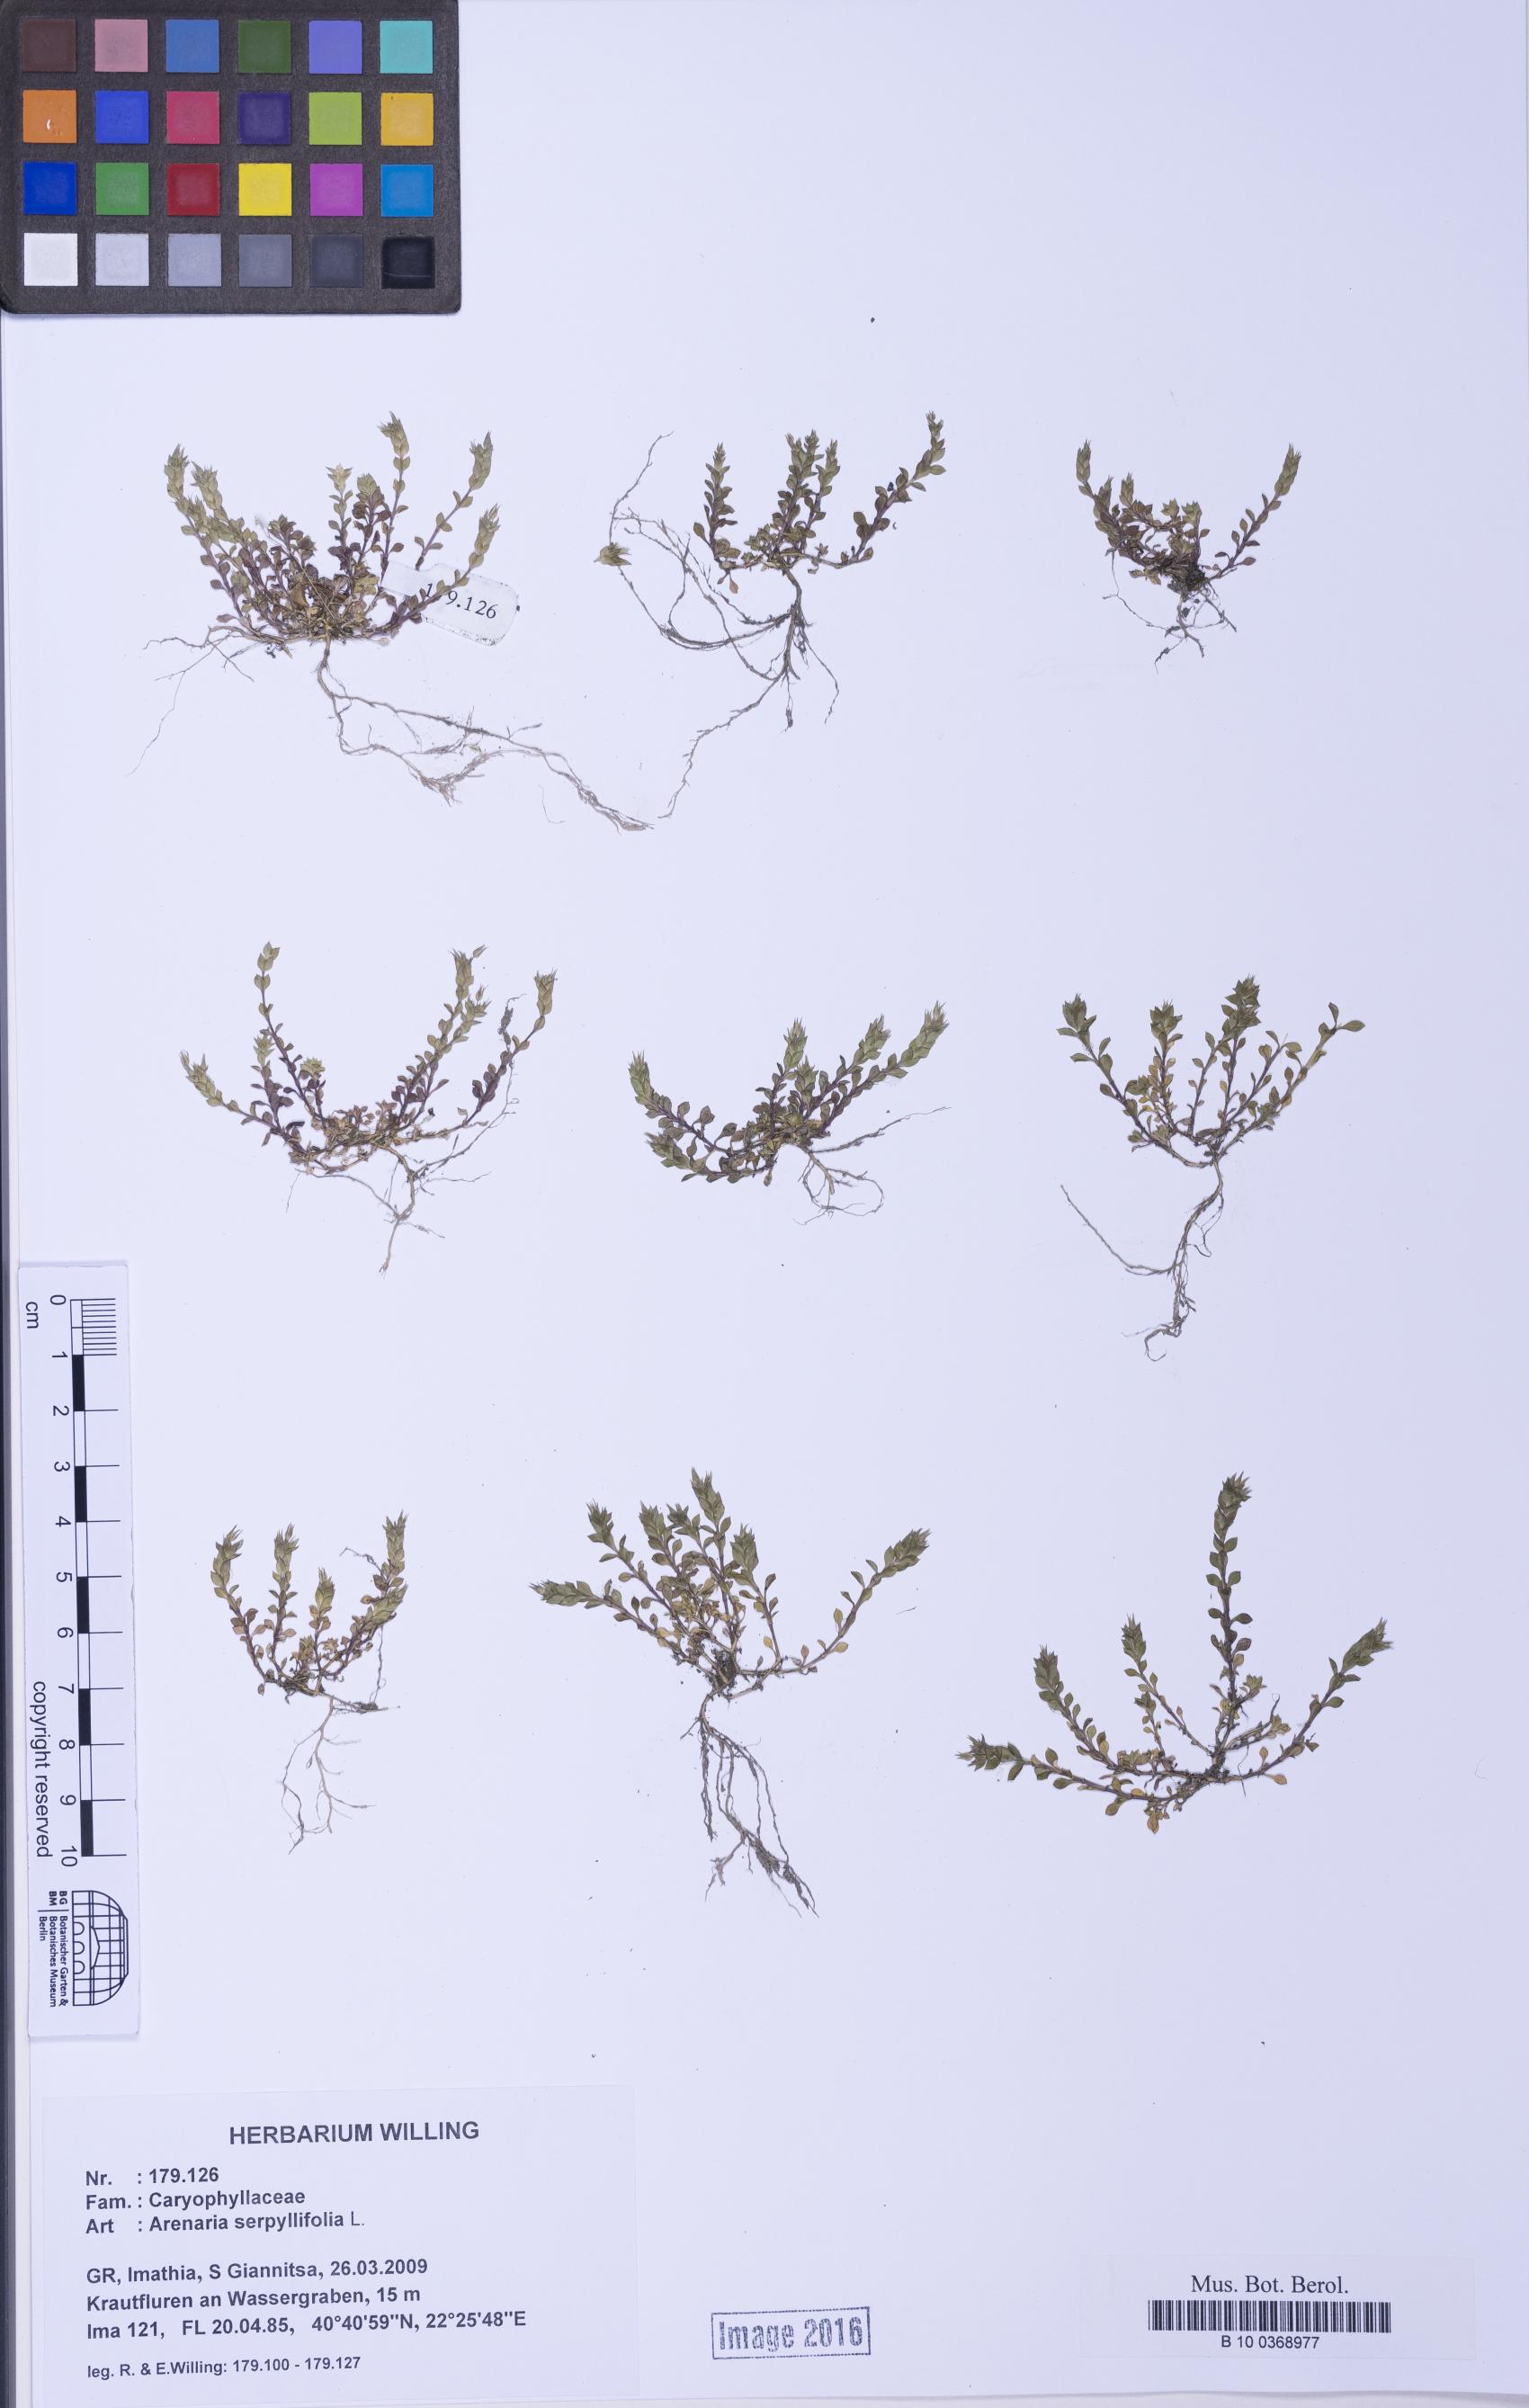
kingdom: Plantae
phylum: Tracheophyta
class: Magnoliopsida
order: Caryophyllales
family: Caryophyllaceae
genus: Arenaria
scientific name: Arenaria serpyllifolia
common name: Thyme-leaved sandwort
